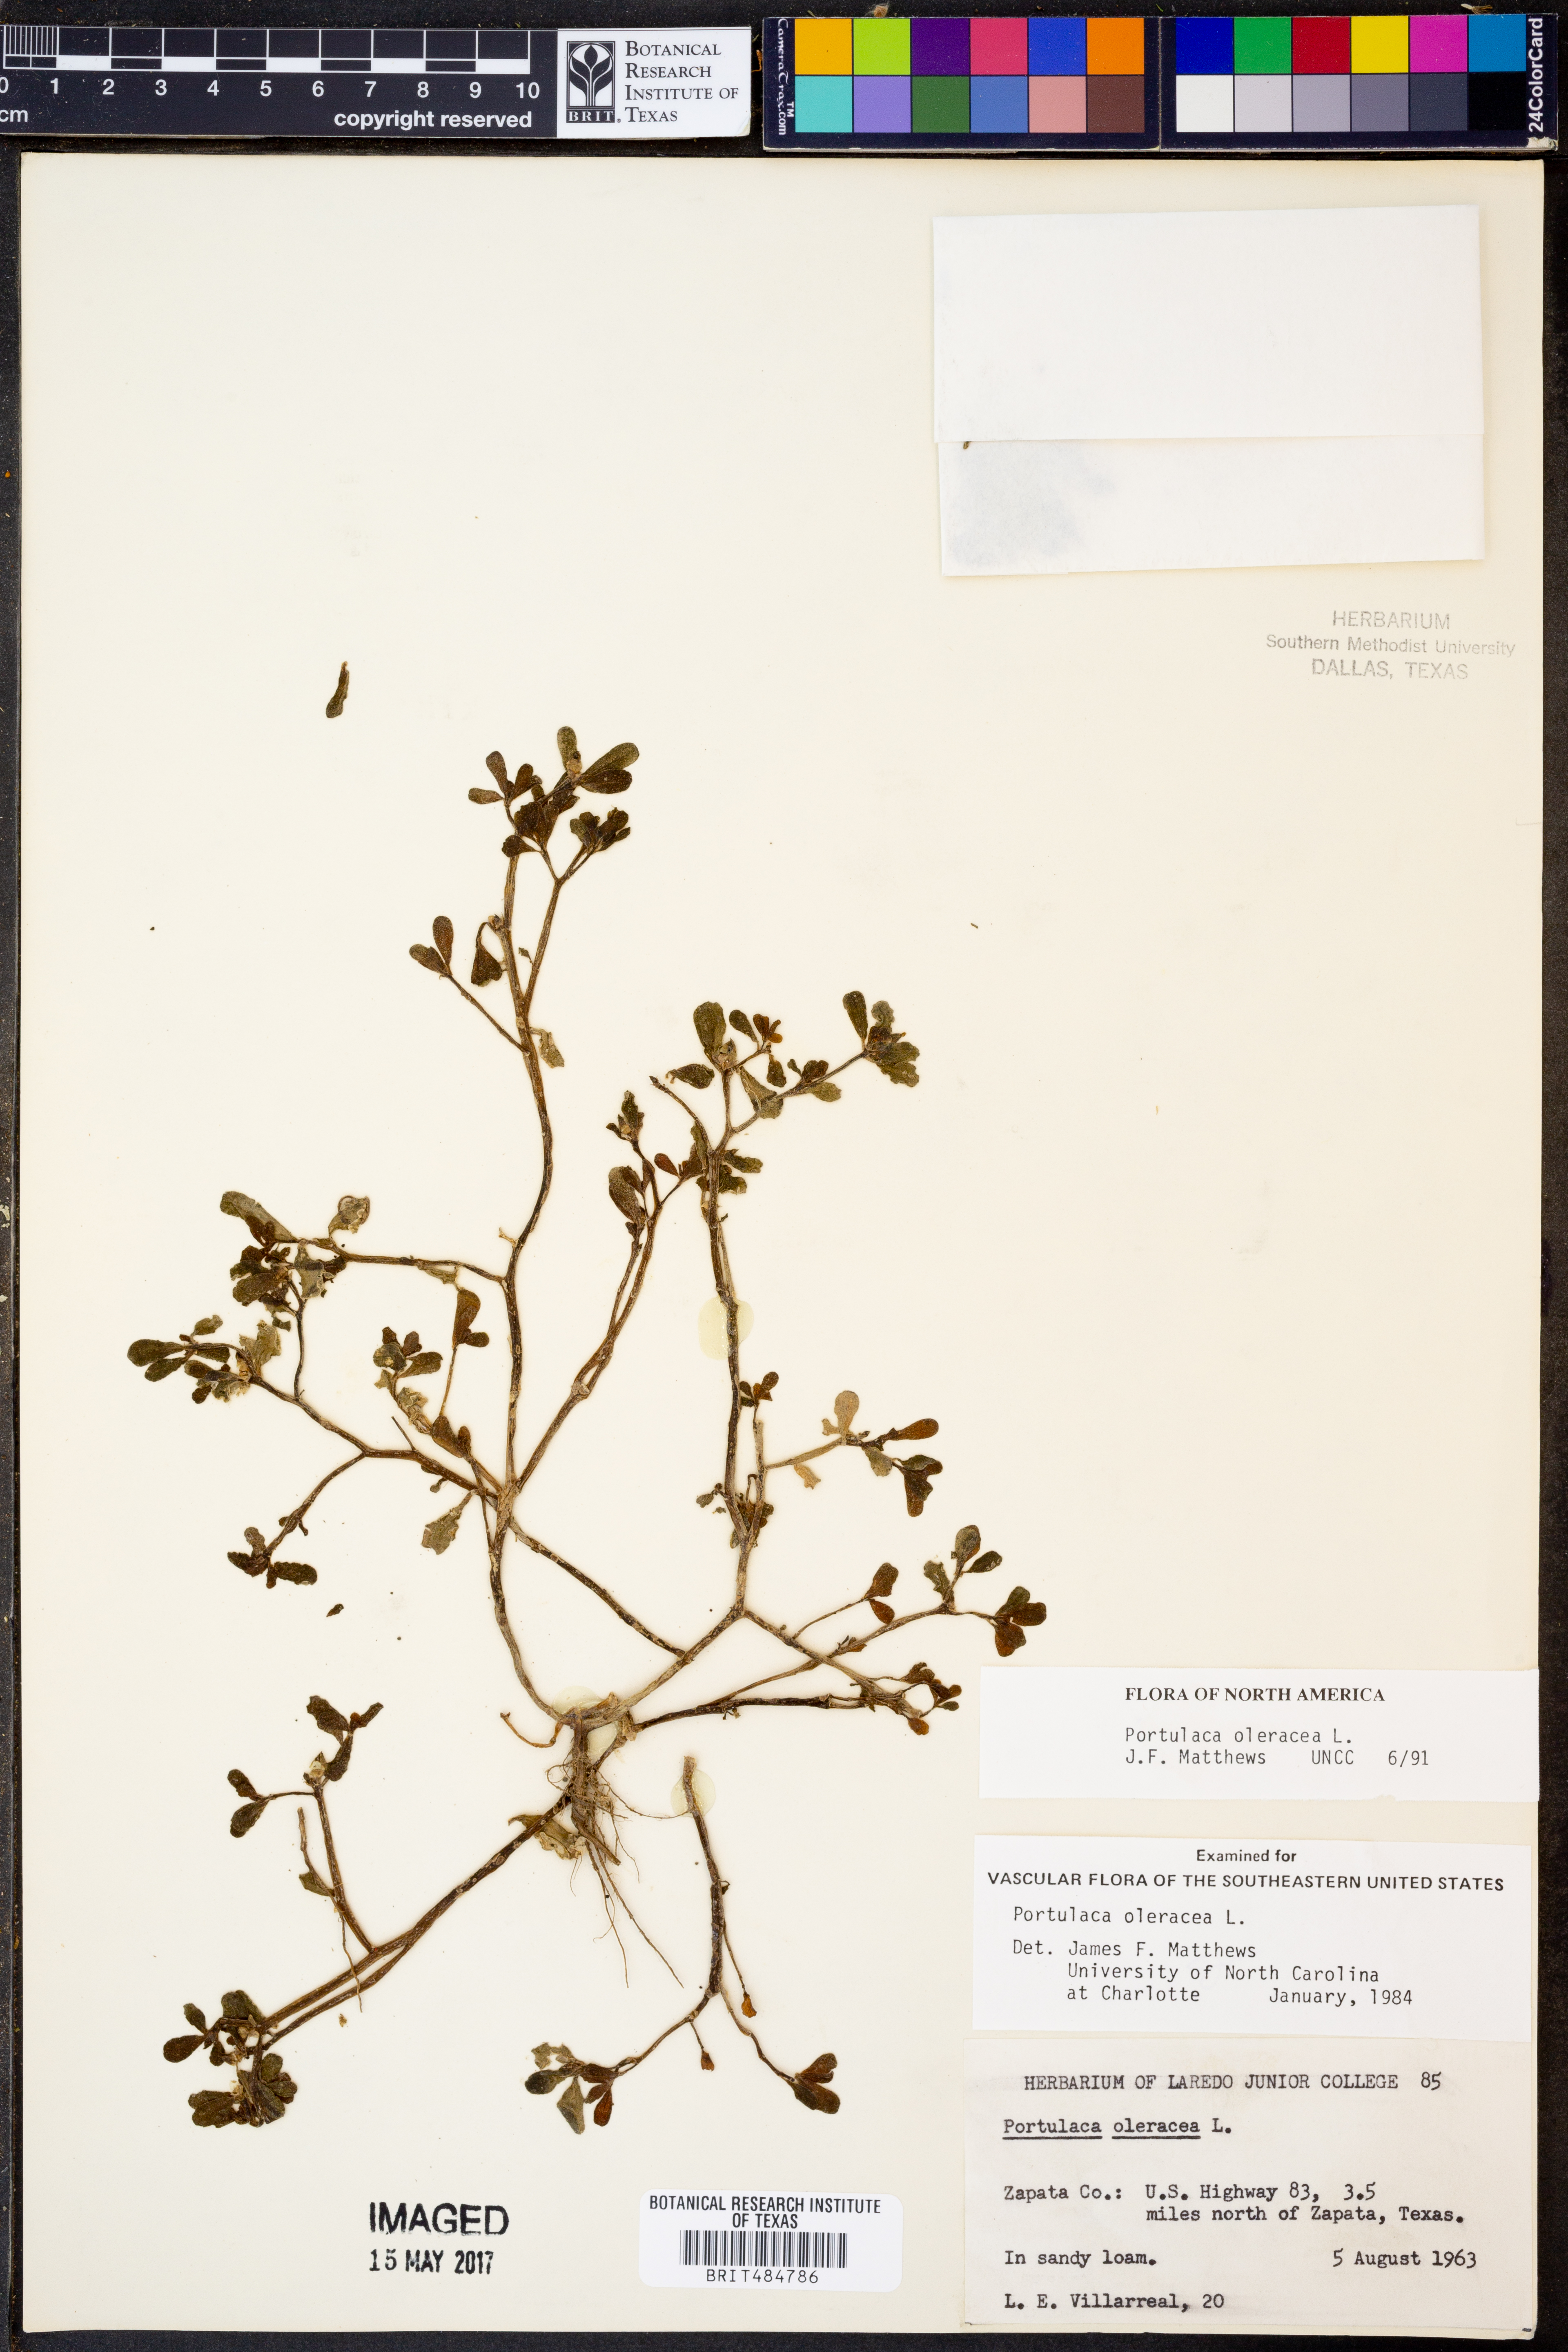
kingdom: Plantae
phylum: Tracheophyta
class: Magnoliopsida
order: Caryophyllales
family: Portulacaceae
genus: Portulaca
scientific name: Portulaca oleracea
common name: Common purslane
